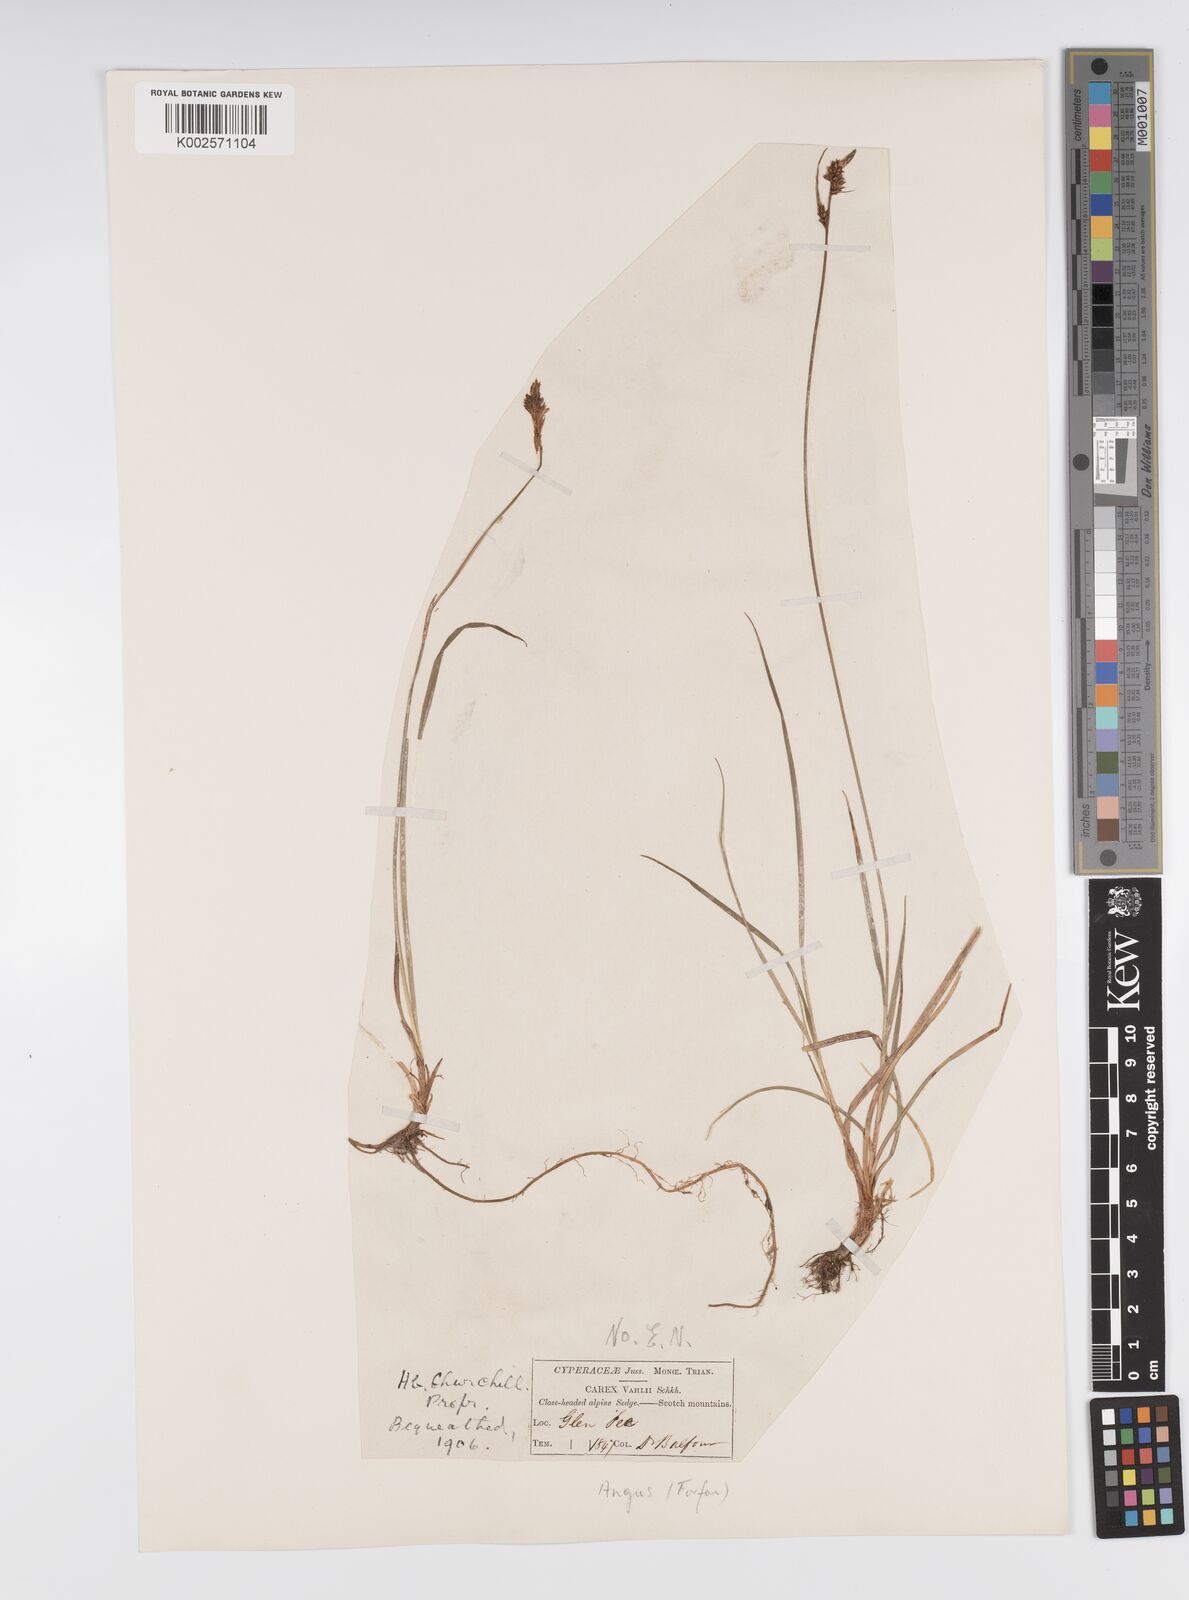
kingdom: Plantae
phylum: Tracheophyta
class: Liliopsida
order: Poales
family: Cyperaceae
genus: Carex
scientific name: Carex pilulifera
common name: Pill sedge
